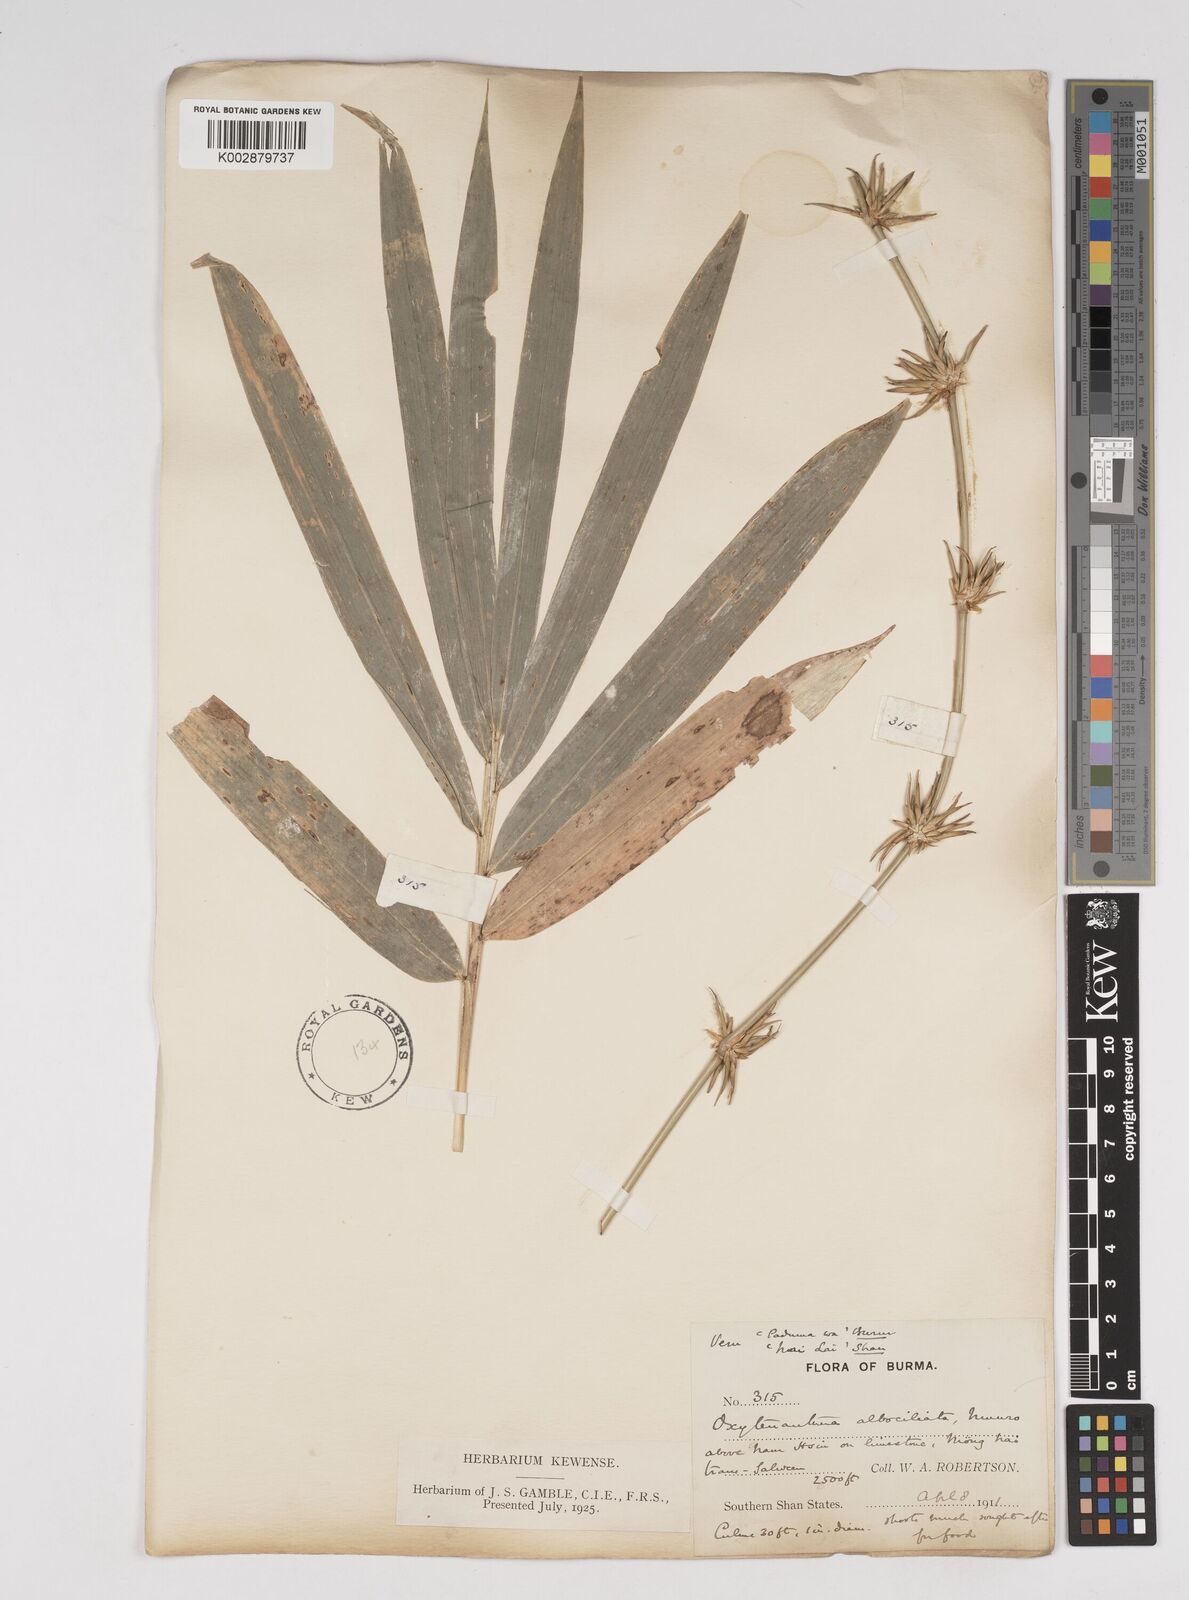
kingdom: Plantae
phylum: Tracheophyta
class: Liliopsida
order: Poales
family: Poaceae
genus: Gigantochloa
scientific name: Gigantochloa albociliata
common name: White-fringe gigantochloa
